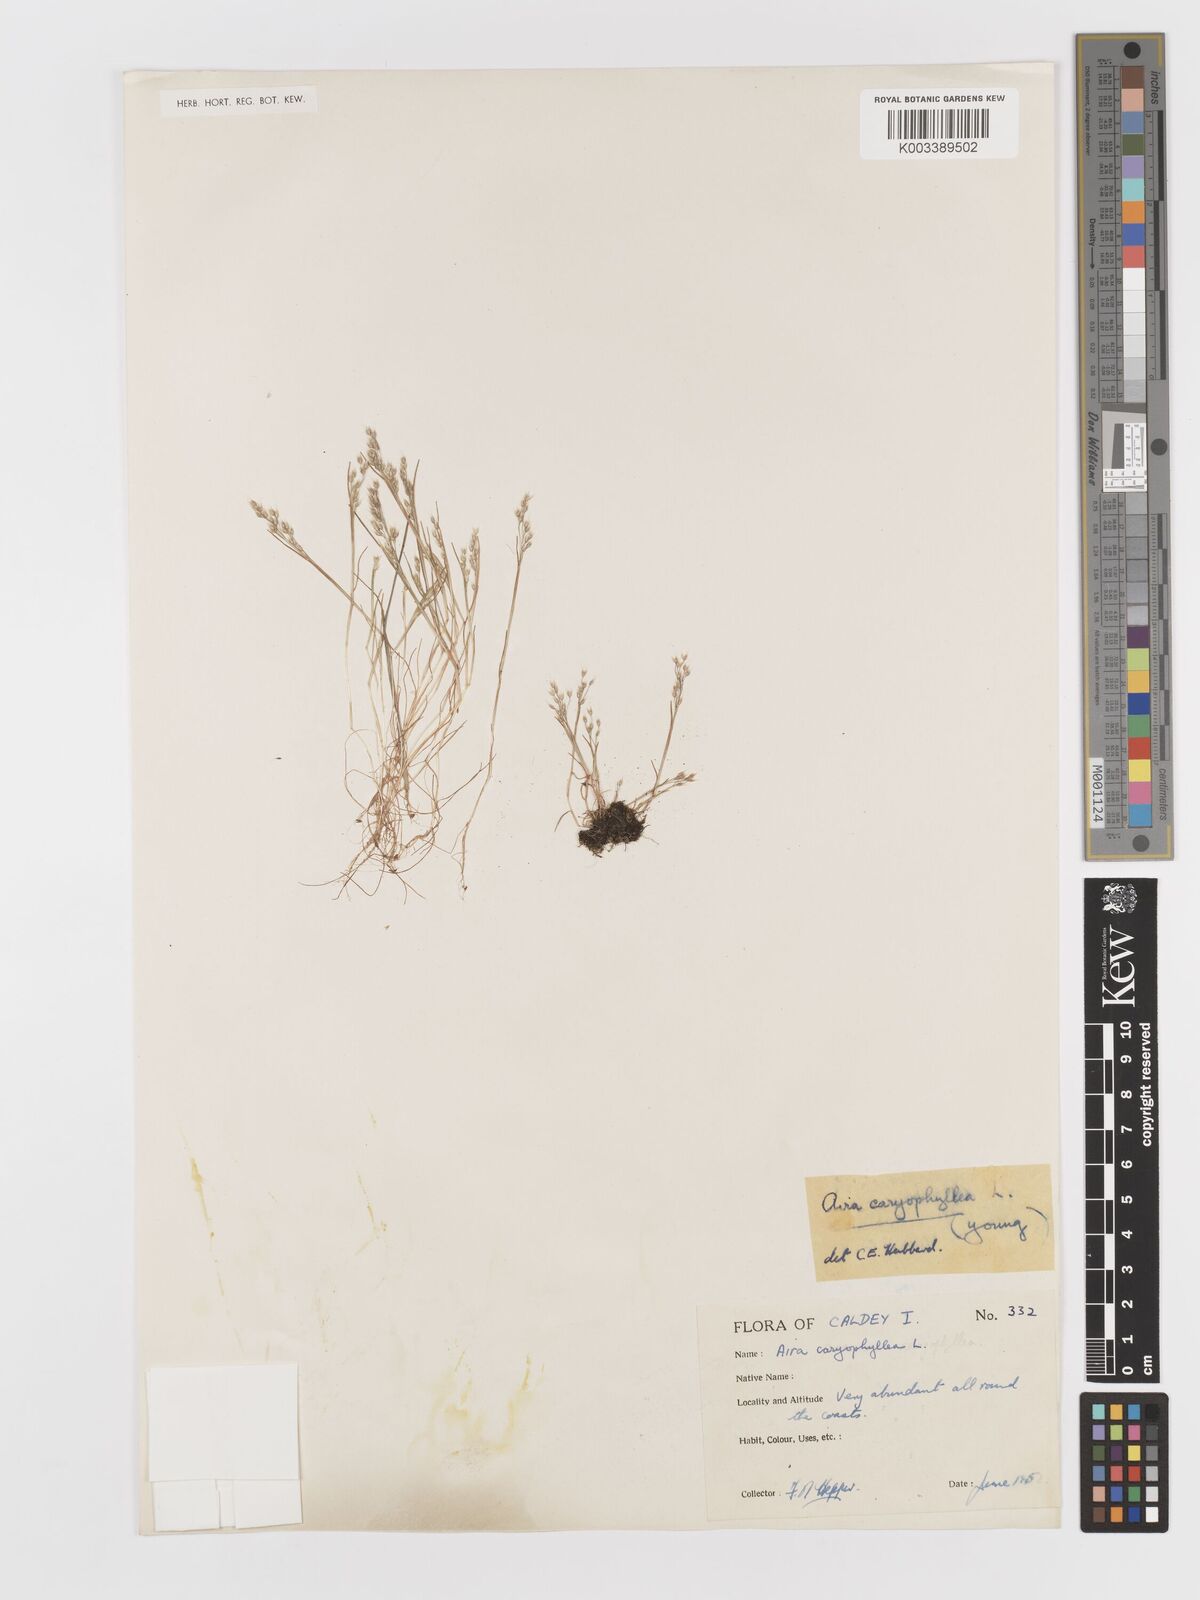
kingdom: Plantae
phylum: Tracheophyta
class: Liliopsida
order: Poales
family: Poaceae
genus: Aira
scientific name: Aira caryophyllea
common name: Silver hairgrass
